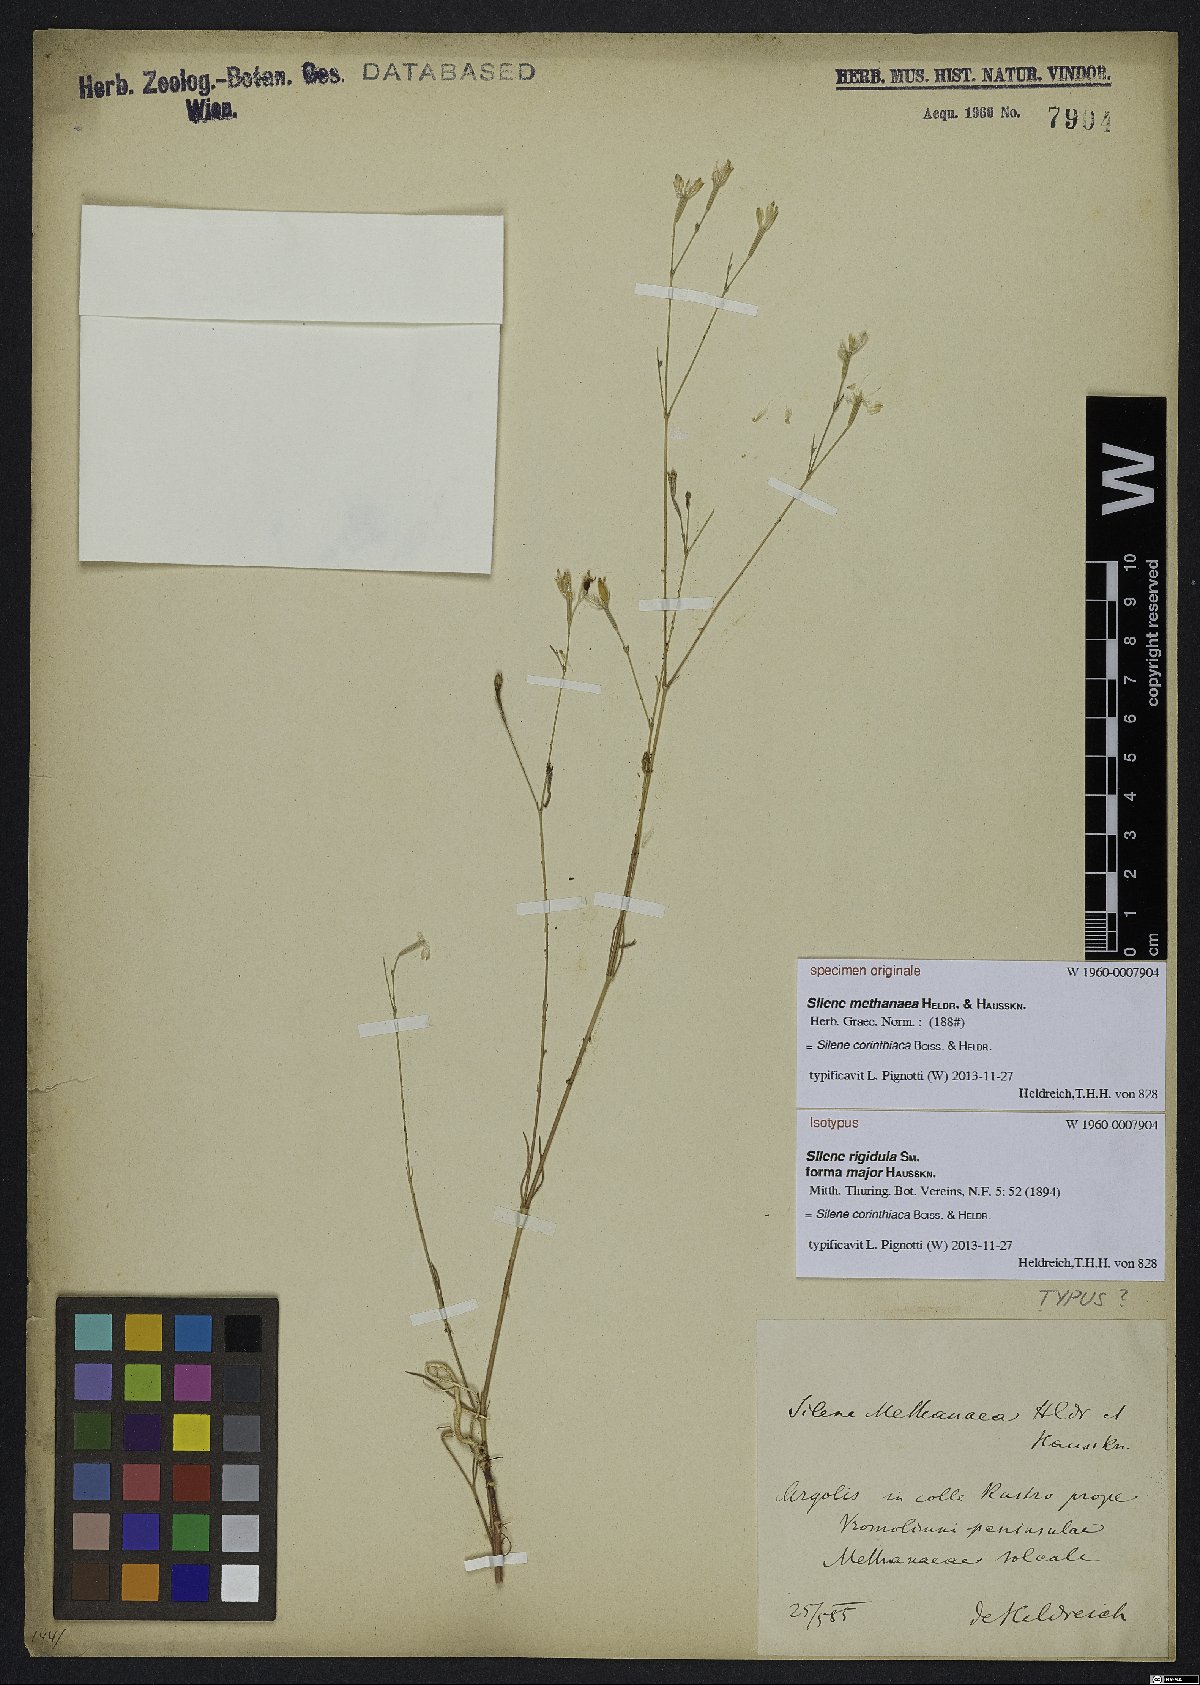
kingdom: Plantae
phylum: Tracheophyta
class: Magnoliopsida
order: Caryophyllales
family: Caryophyllaceae
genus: Silene
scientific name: Silene corinthiaca
